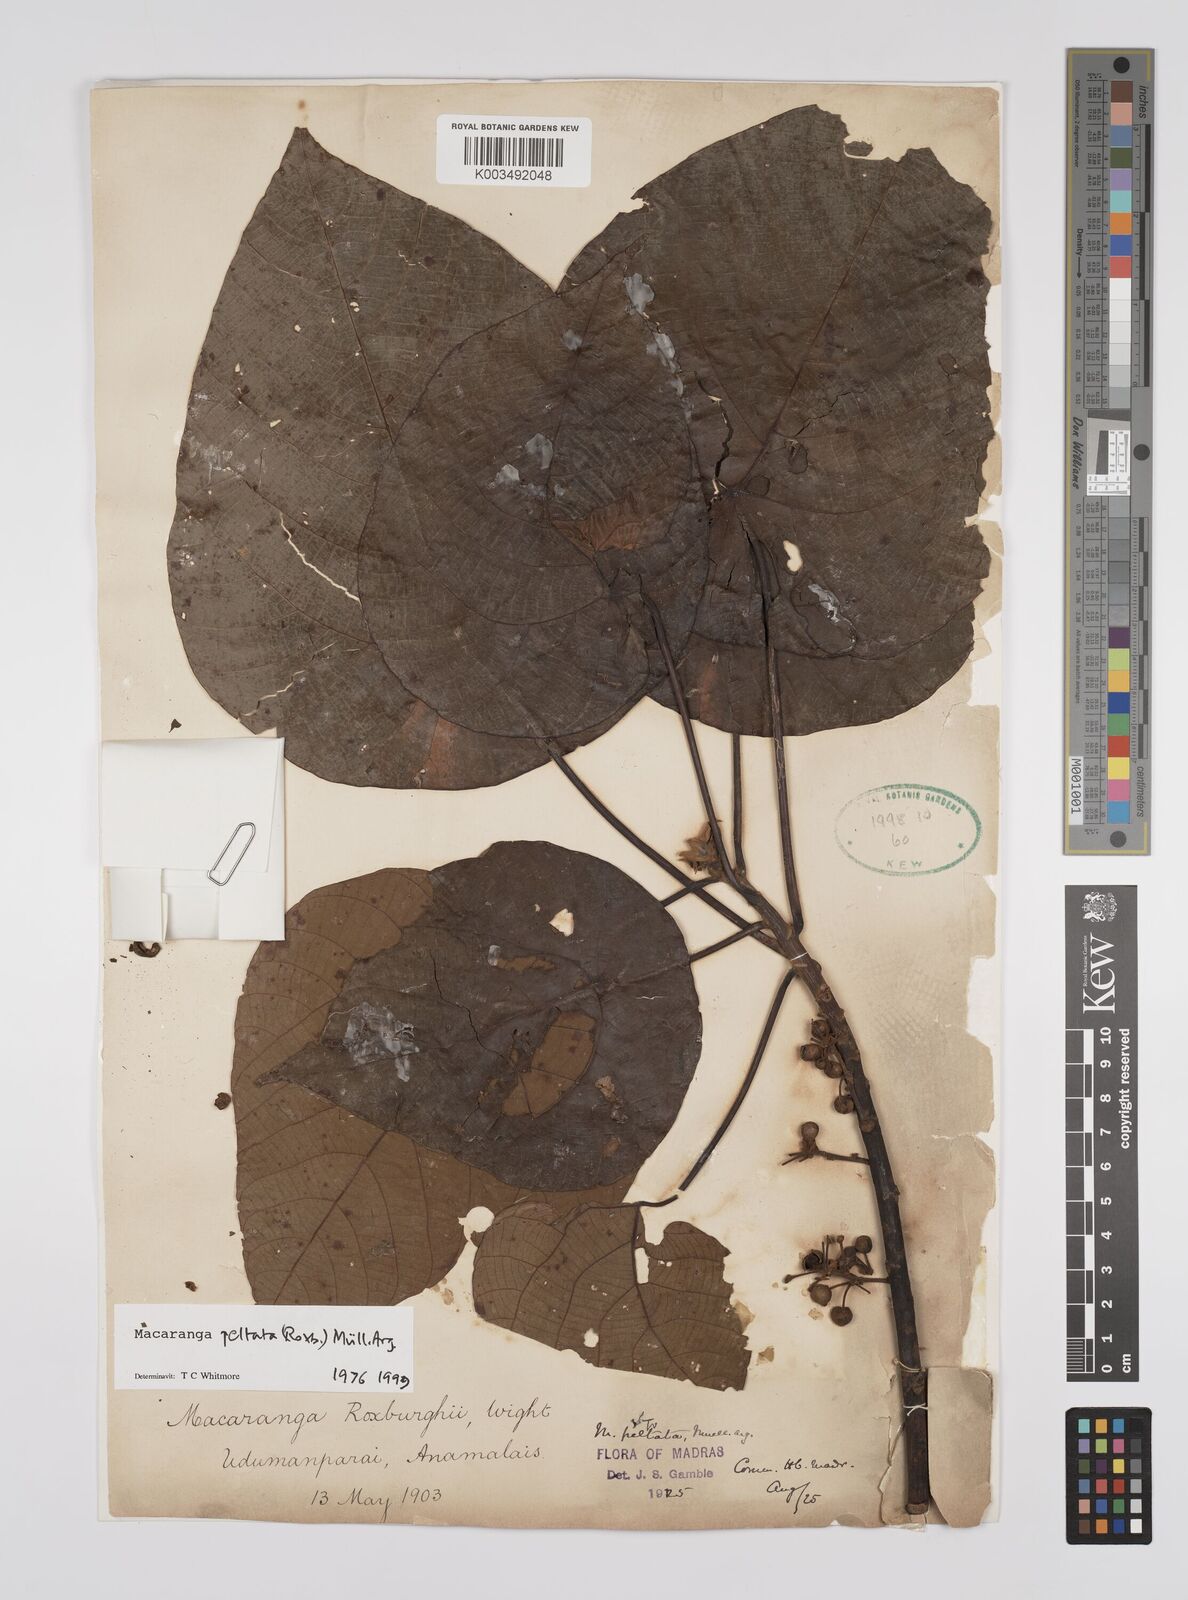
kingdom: Plantae
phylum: Tracheophyta
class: Magnoliopsida
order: Malpighiales
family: Euphorbiaceae
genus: Macaranga
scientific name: Macaranga peltata
